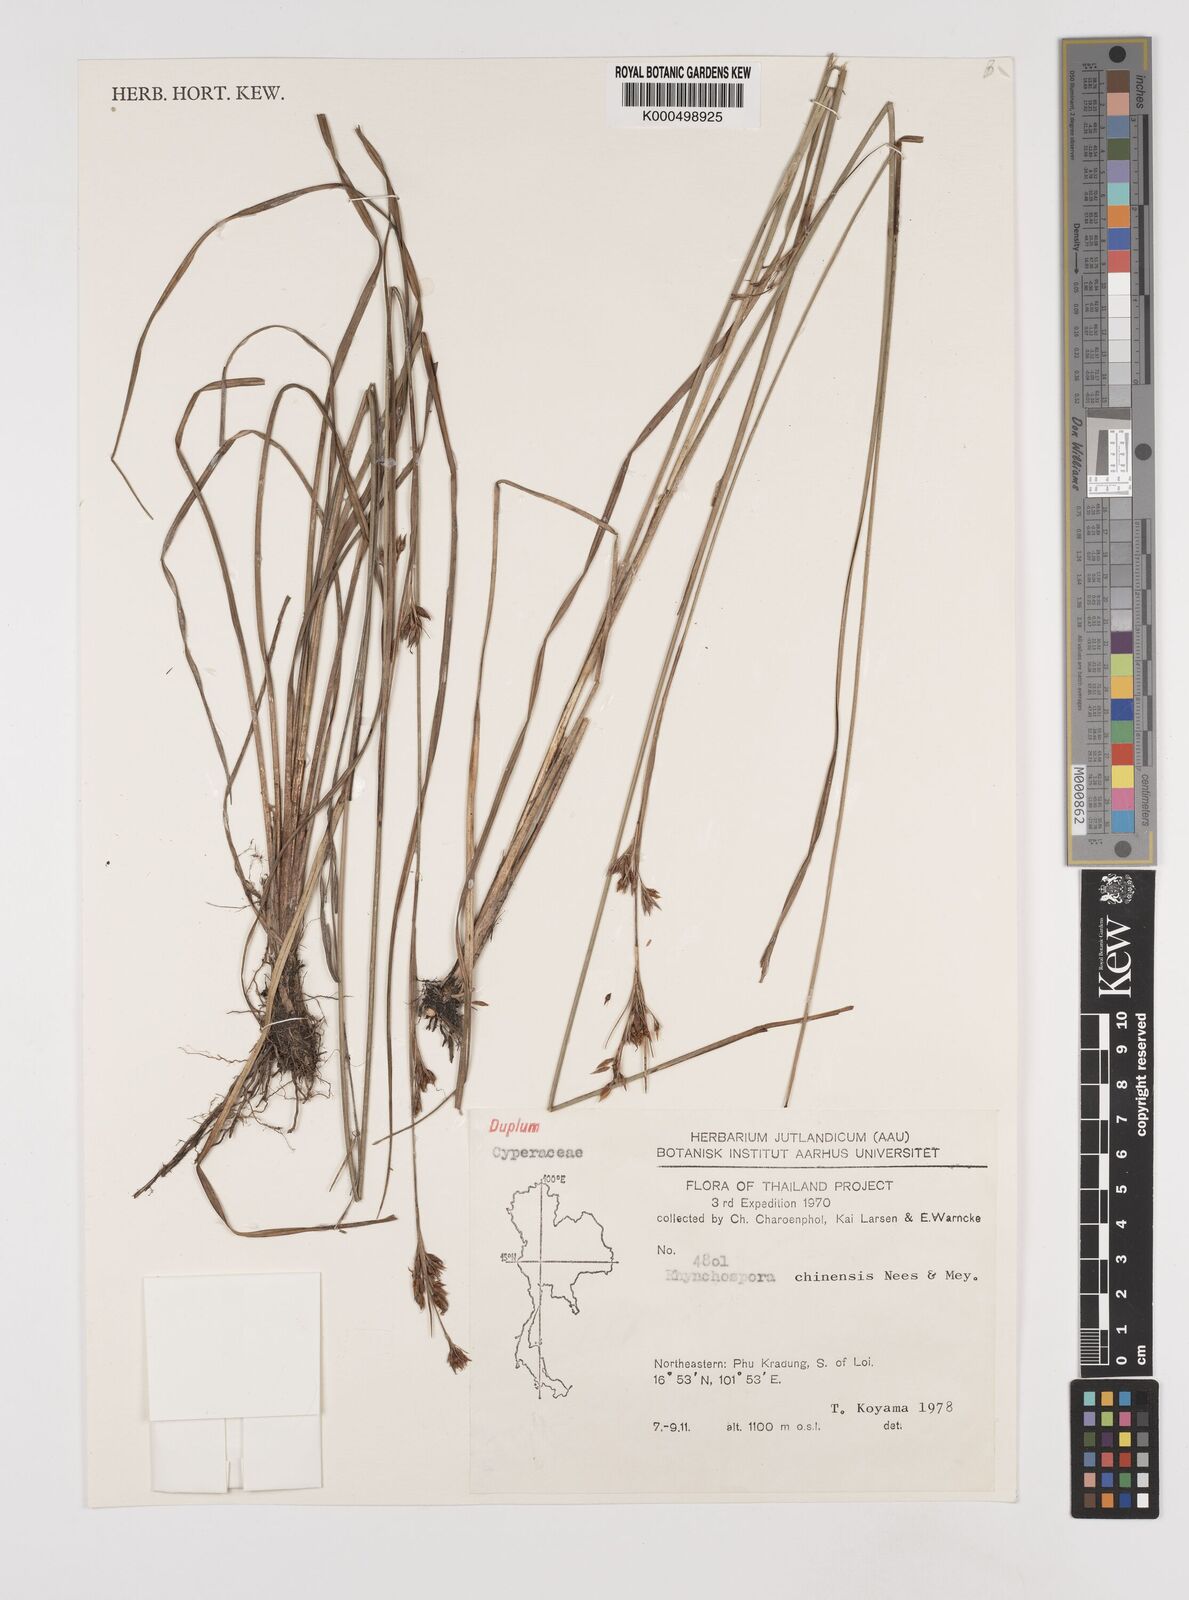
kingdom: Plantae
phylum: Tracheophyta
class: Liliopsida
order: Poales
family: Cyperaceae
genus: Rhynchospora
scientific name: Rhynchospora chinensis
